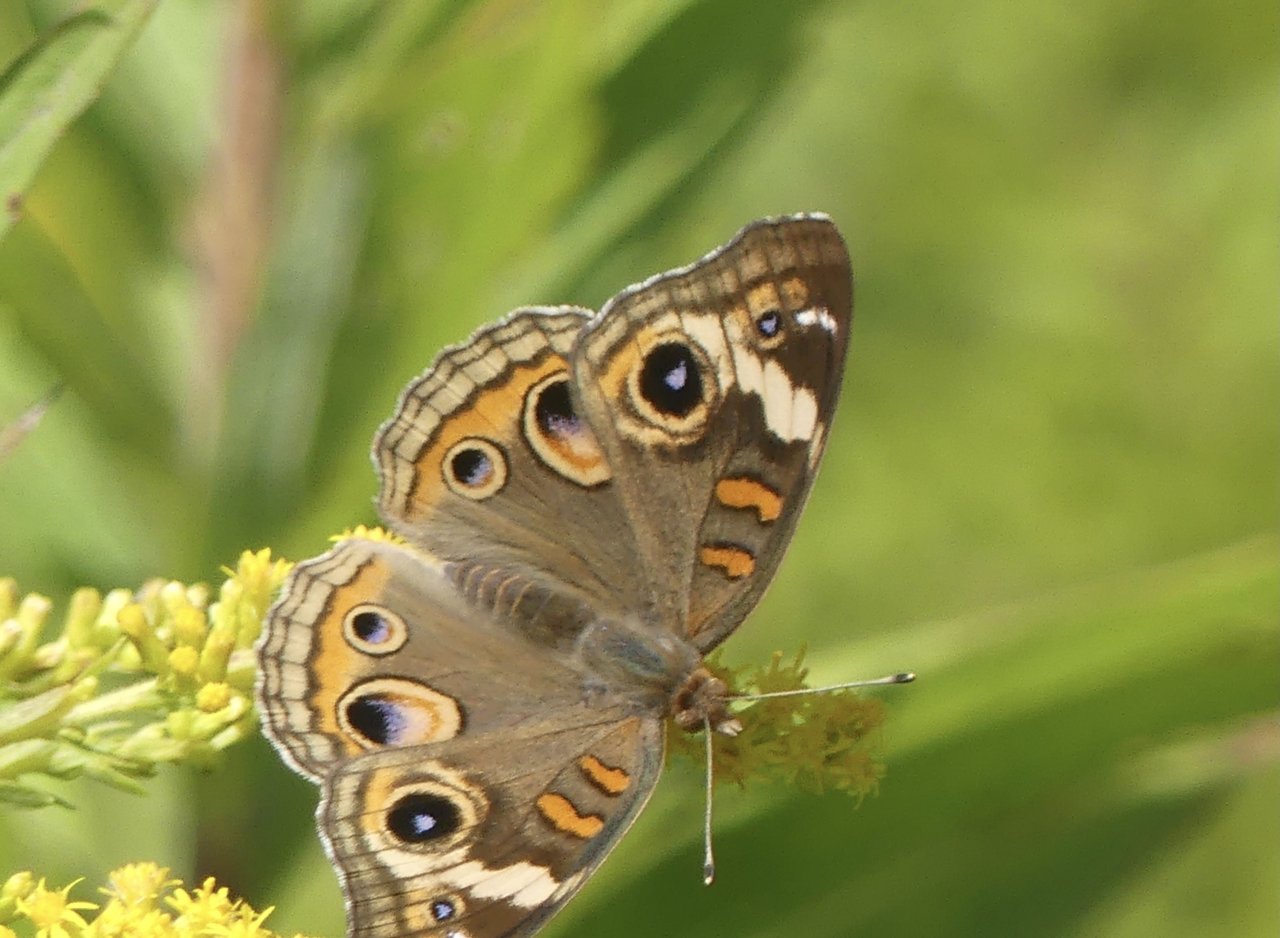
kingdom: Animalia
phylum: Arthropoda
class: Insecta
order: Lepidoptera
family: Nymphalidae
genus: Junonia
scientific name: Junonia coenia
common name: Common Buckeye
